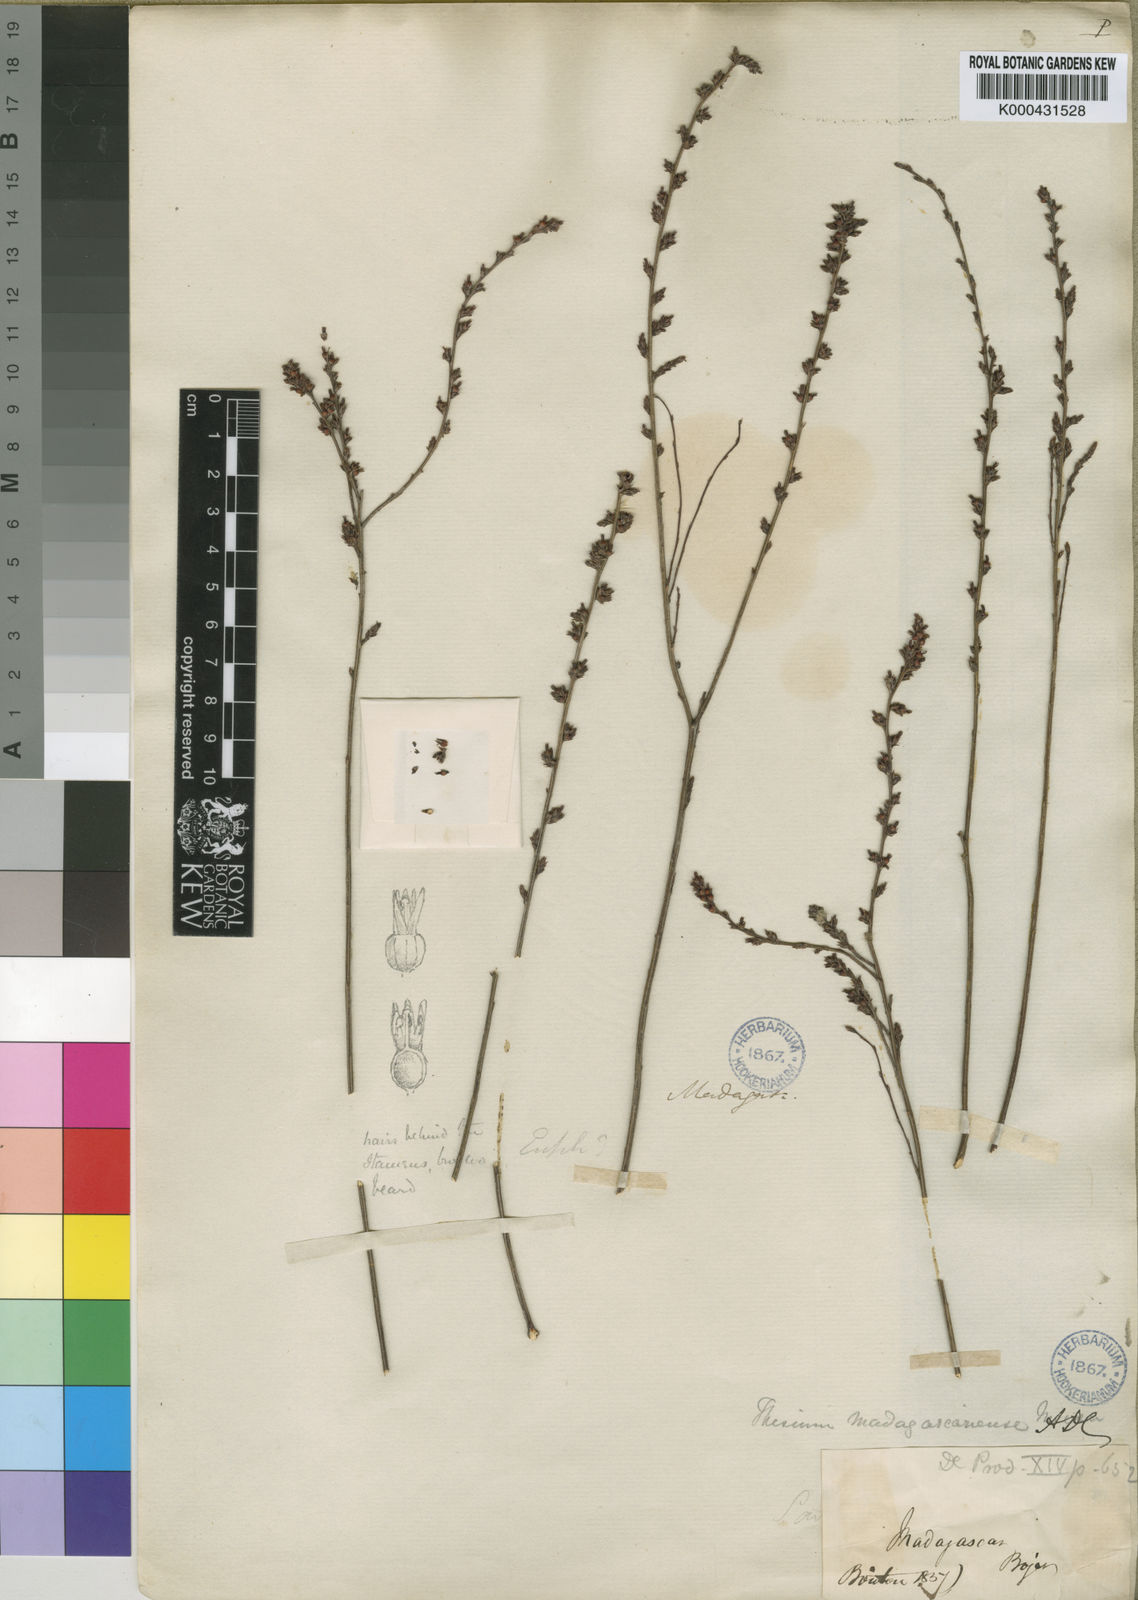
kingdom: Plantae
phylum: Tracheophyta
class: Magnoliopsida
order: Santalales
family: Thesiaceae
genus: Thesium
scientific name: Thesium madagascariense
